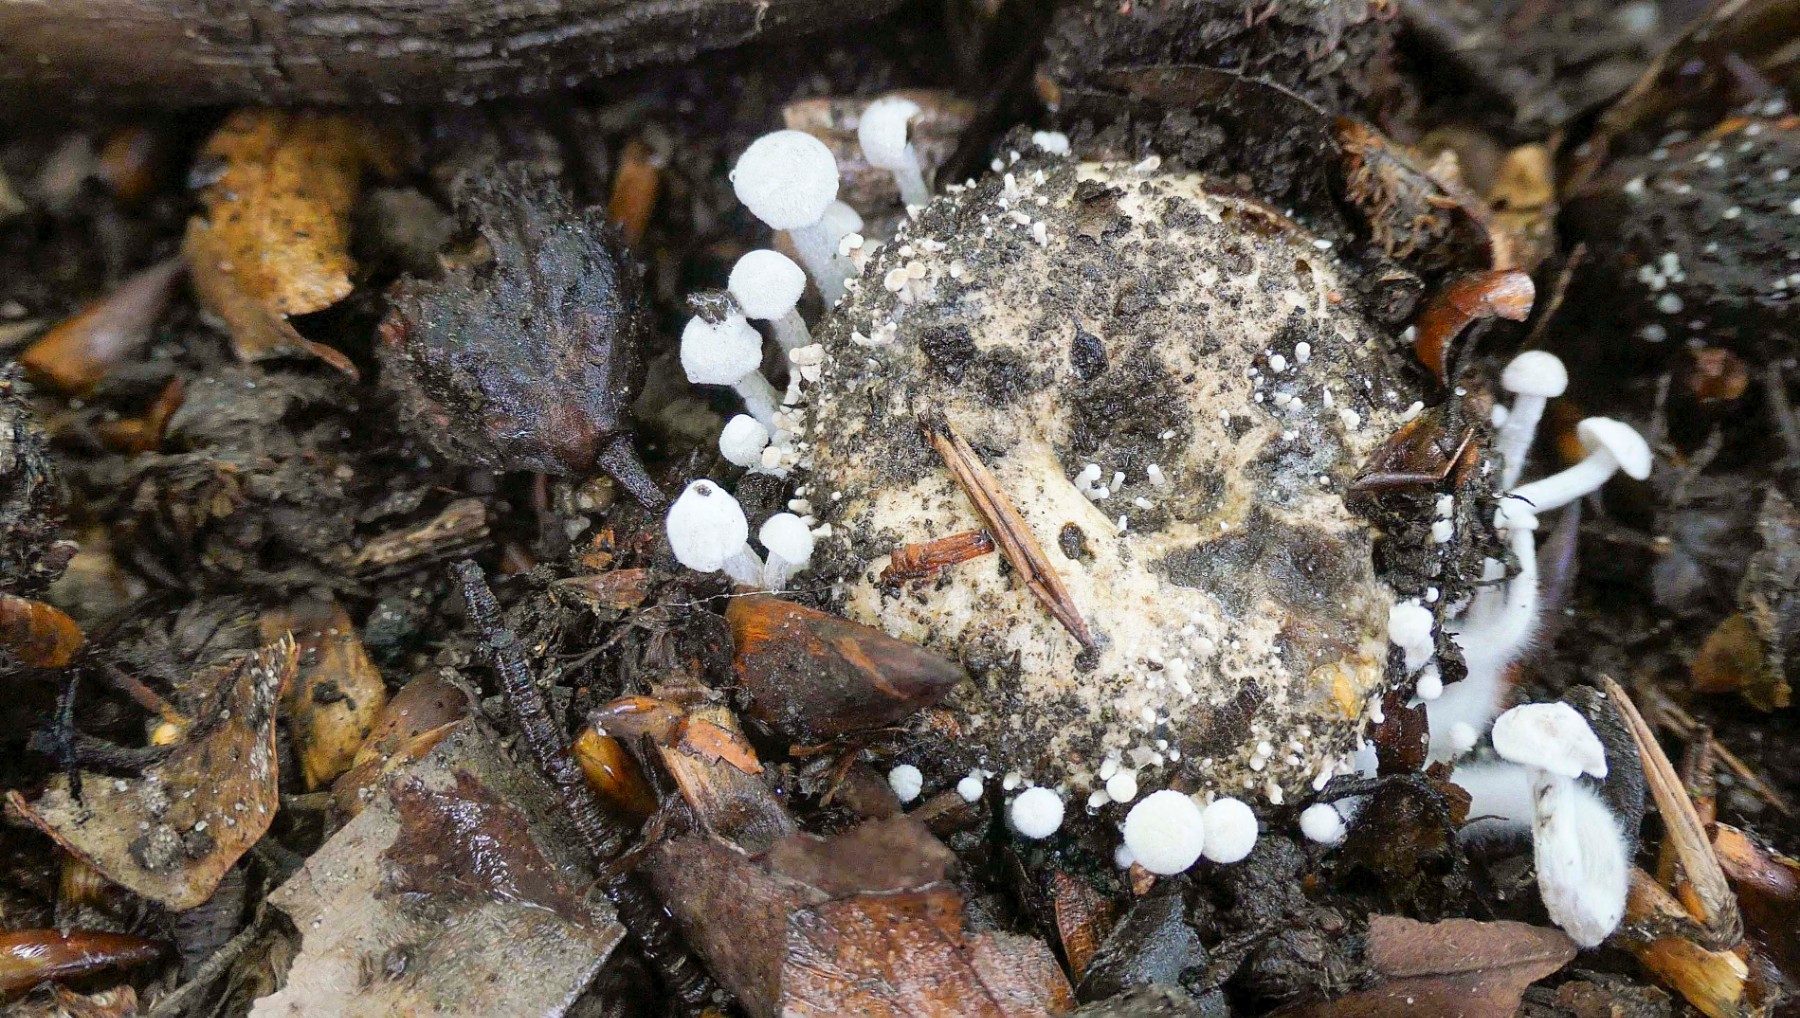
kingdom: Fungi
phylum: Basidiomycota
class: Agaricomycetes
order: Agaricales
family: Lyophyllaceae
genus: Asterophora
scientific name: Asterophora parasitica
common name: grå snyltehat
